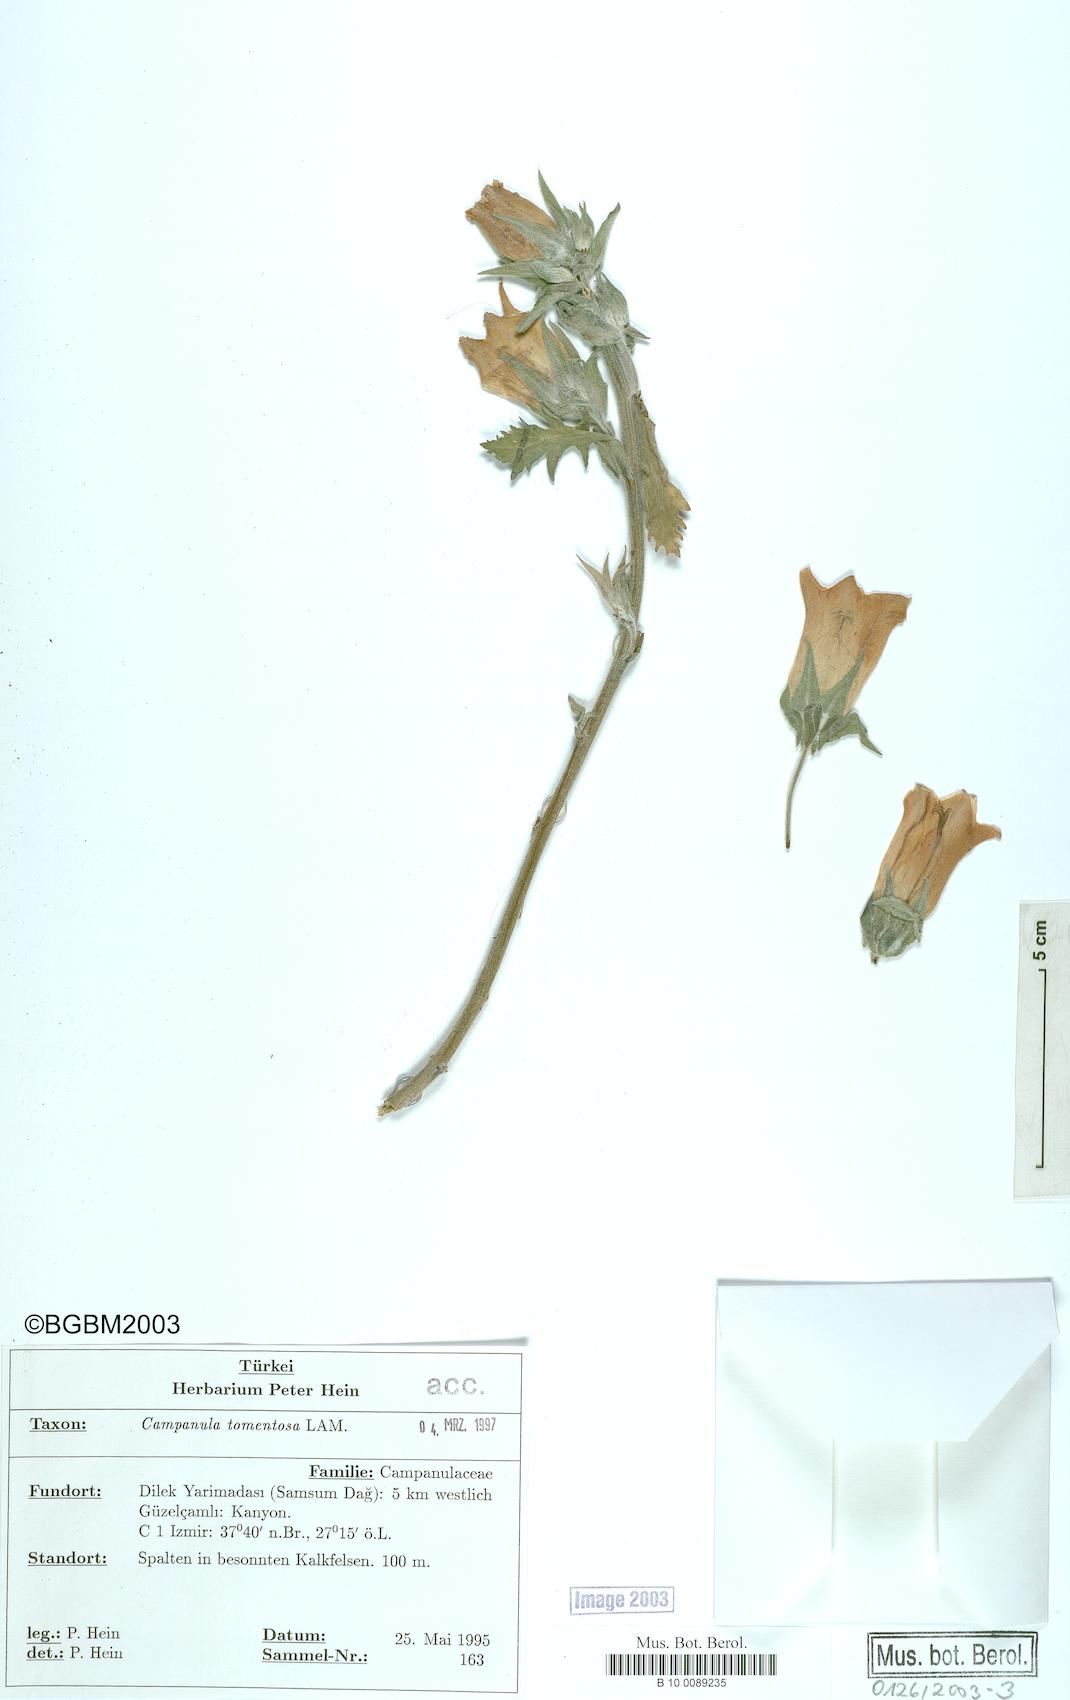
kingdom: Plantae
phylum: Tracheophyta
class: Magnoliopsida
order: Asterales
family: Campanulaceae
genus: Campanula
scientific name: Campanula tomentosa
